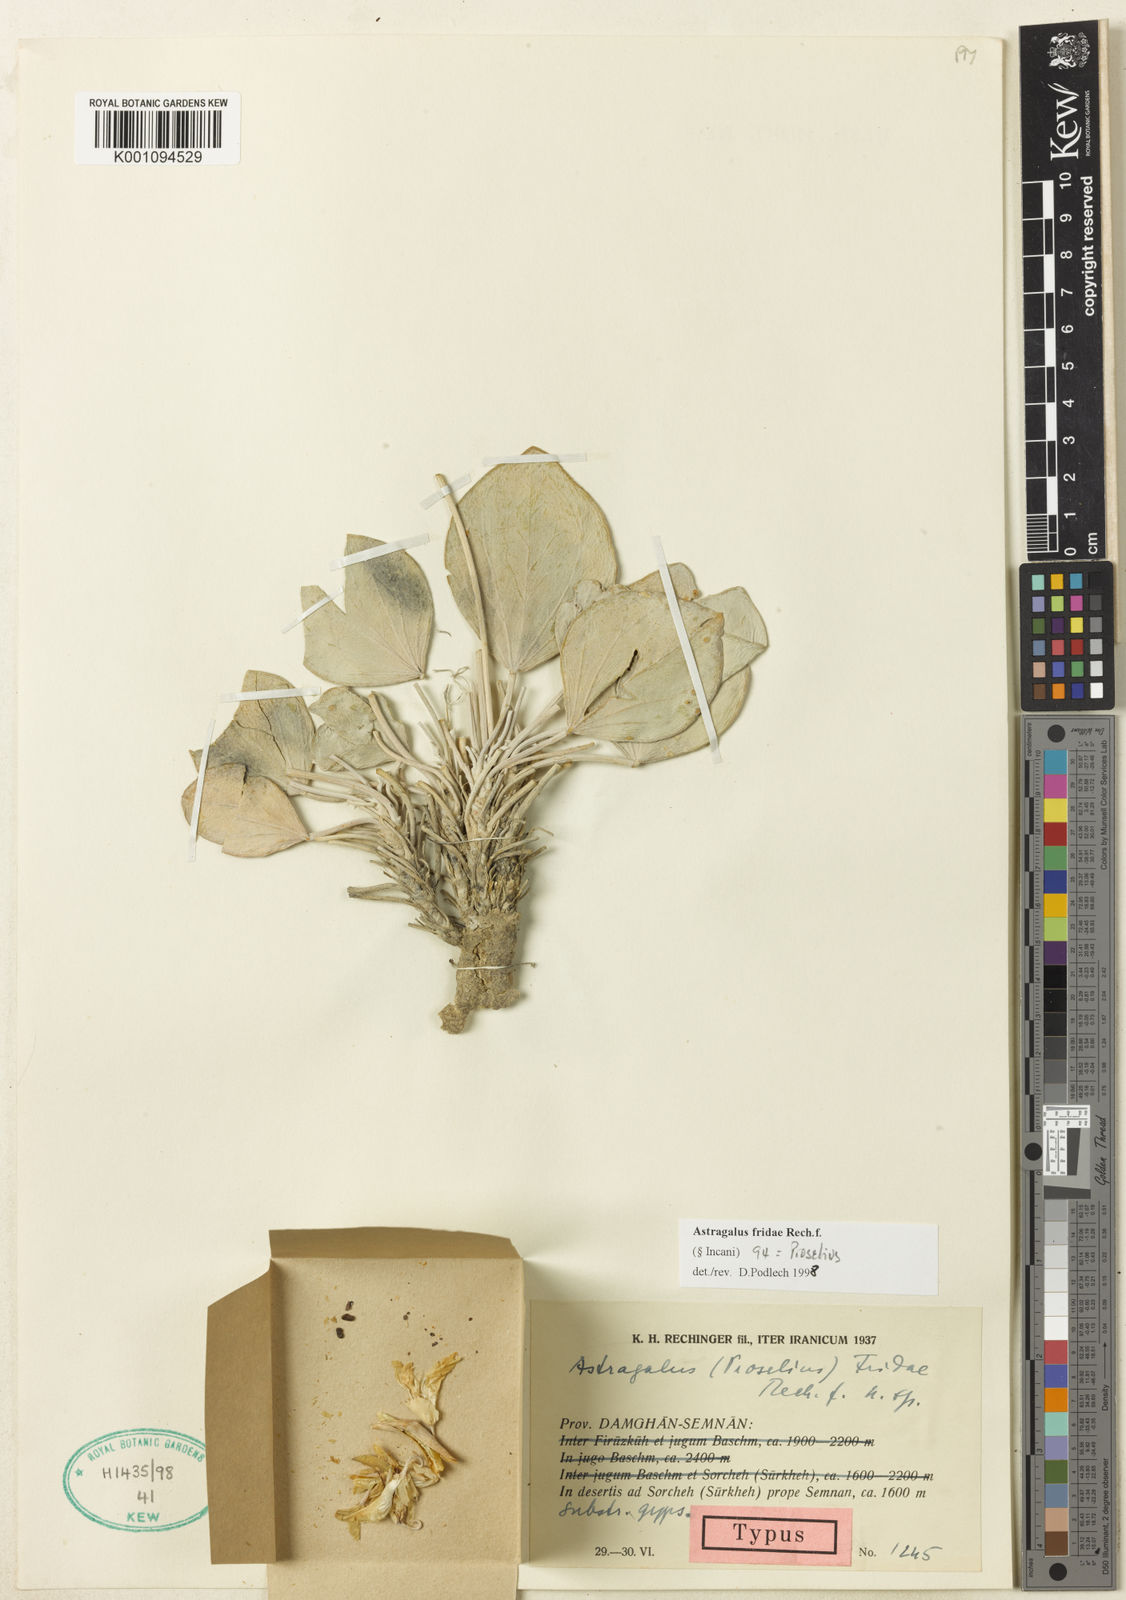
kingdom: Plantae
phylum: Tracheophyta
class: Magnoliopsida
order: Fabales
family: Fabaceae
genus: Astragalus
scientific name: Astragalus
